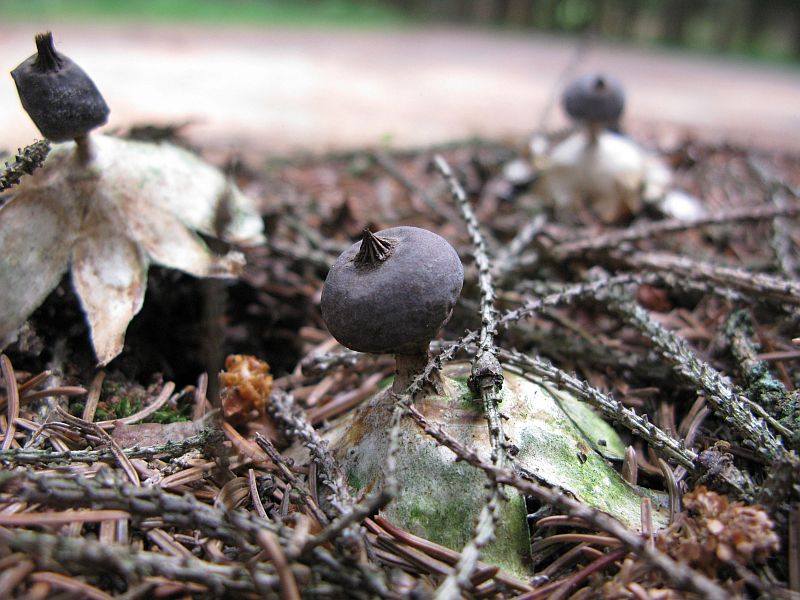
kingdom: Fungi
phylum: Basidiomycota
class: Agaricomycetes
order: Geastrales
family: Geastraceae
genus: Geastrum
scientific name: Geastrum pectinatum
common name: stilket stjernebold
